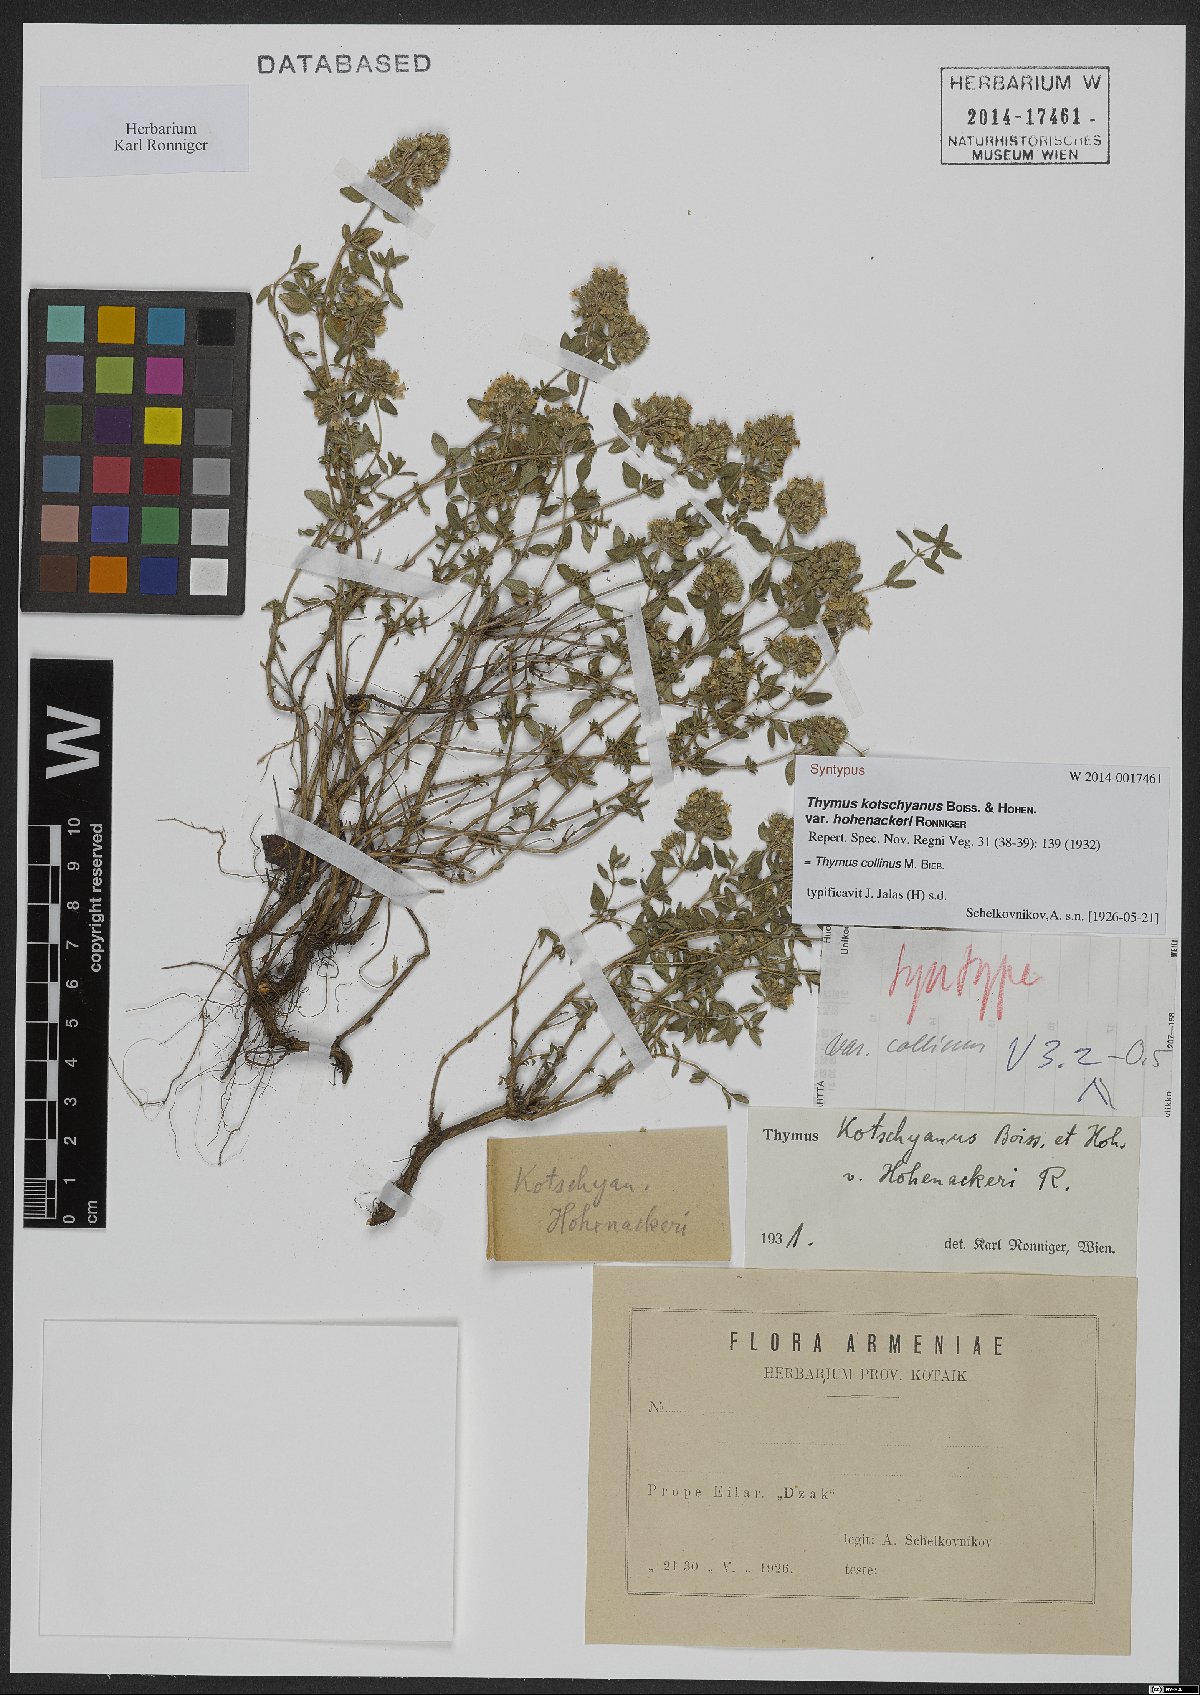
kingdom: Plantae
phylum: Tracheophyta
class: Magnoliopsida
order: Lamiales
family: Lamiaceae
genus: Thymus
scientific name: Thymus collinus
